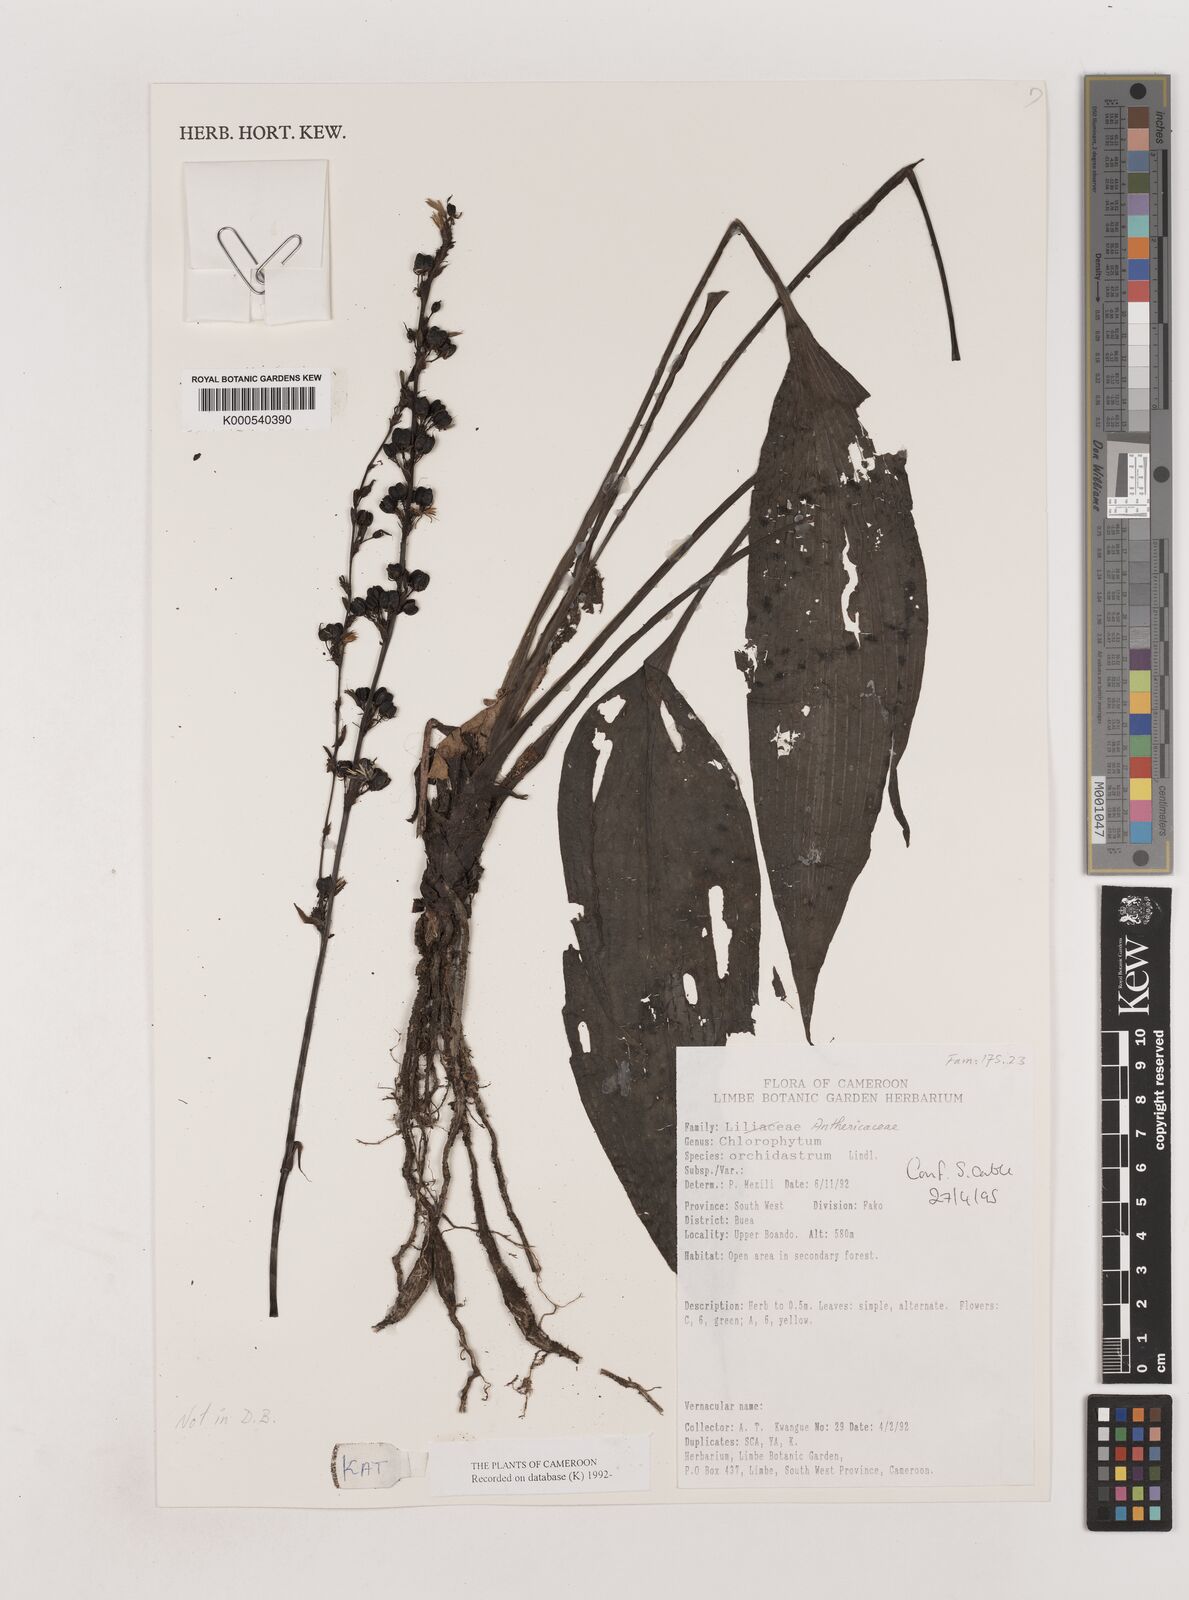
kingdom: Plantae
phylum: Tracheophyta
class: Liliopsida
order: Asparagales
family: Asparagaceae
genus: Chlorophytum
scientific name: Chlorophytum orchidastrum
